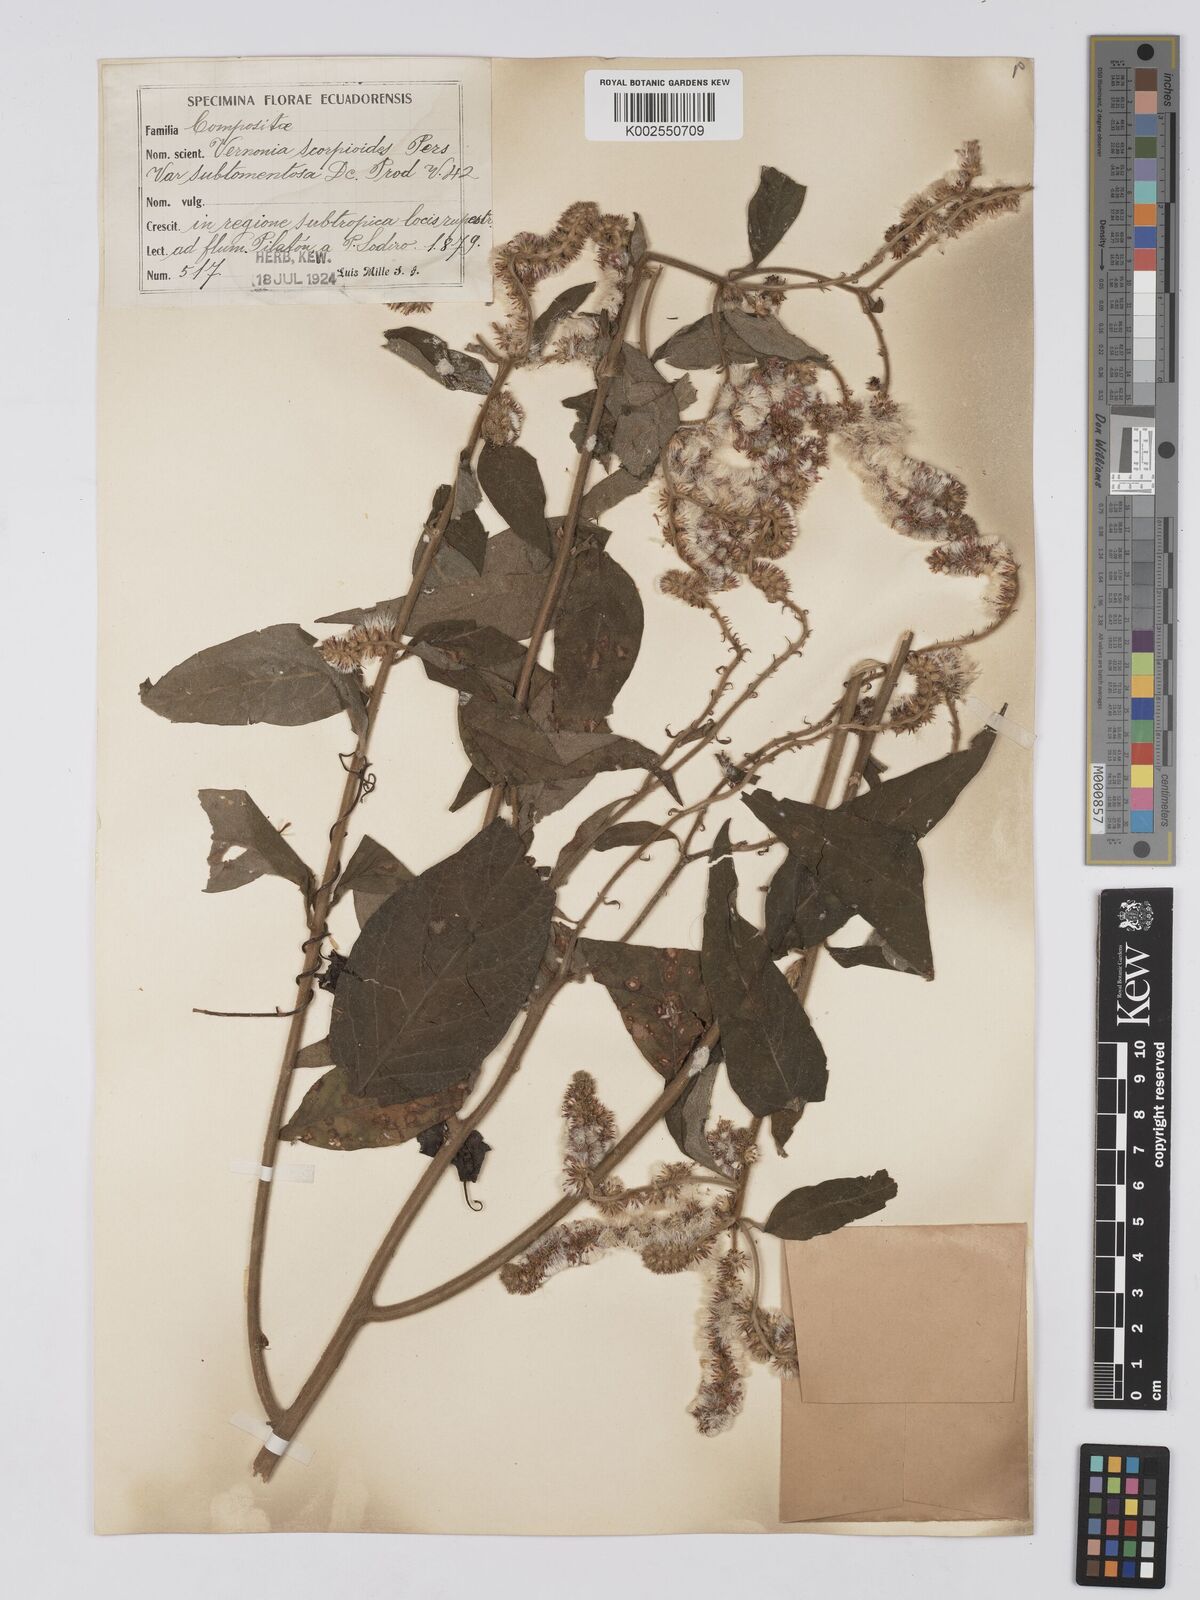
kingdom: Plantae
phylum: Tracheophyta
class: Magnoliopsida
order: Asterales
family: Asteraceae
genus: Cyrtocymura
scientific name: Cyrtocymura scorpioides
